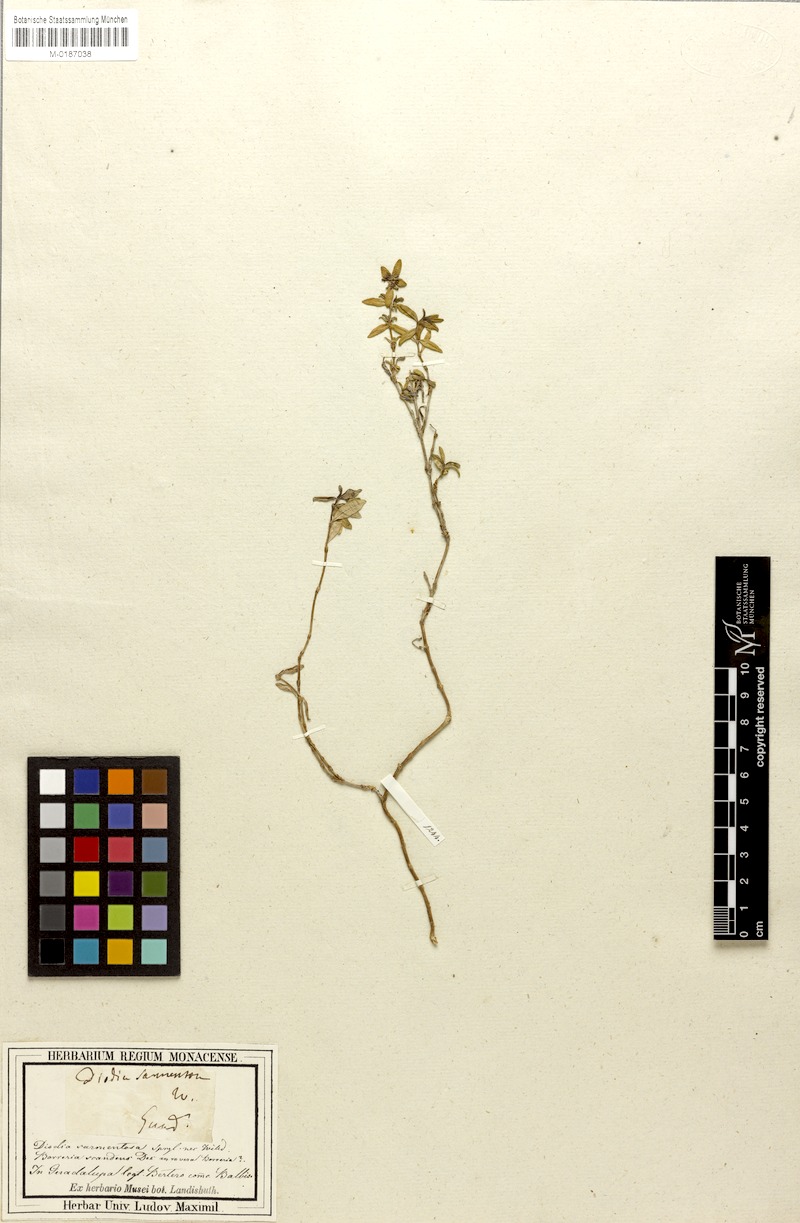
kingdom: Plantae
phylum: Tracheophyta
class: Magnoliopsida
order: Gentianales
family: Rubiaceae
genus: Spermacoce
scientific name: Spermacoce berteroana
